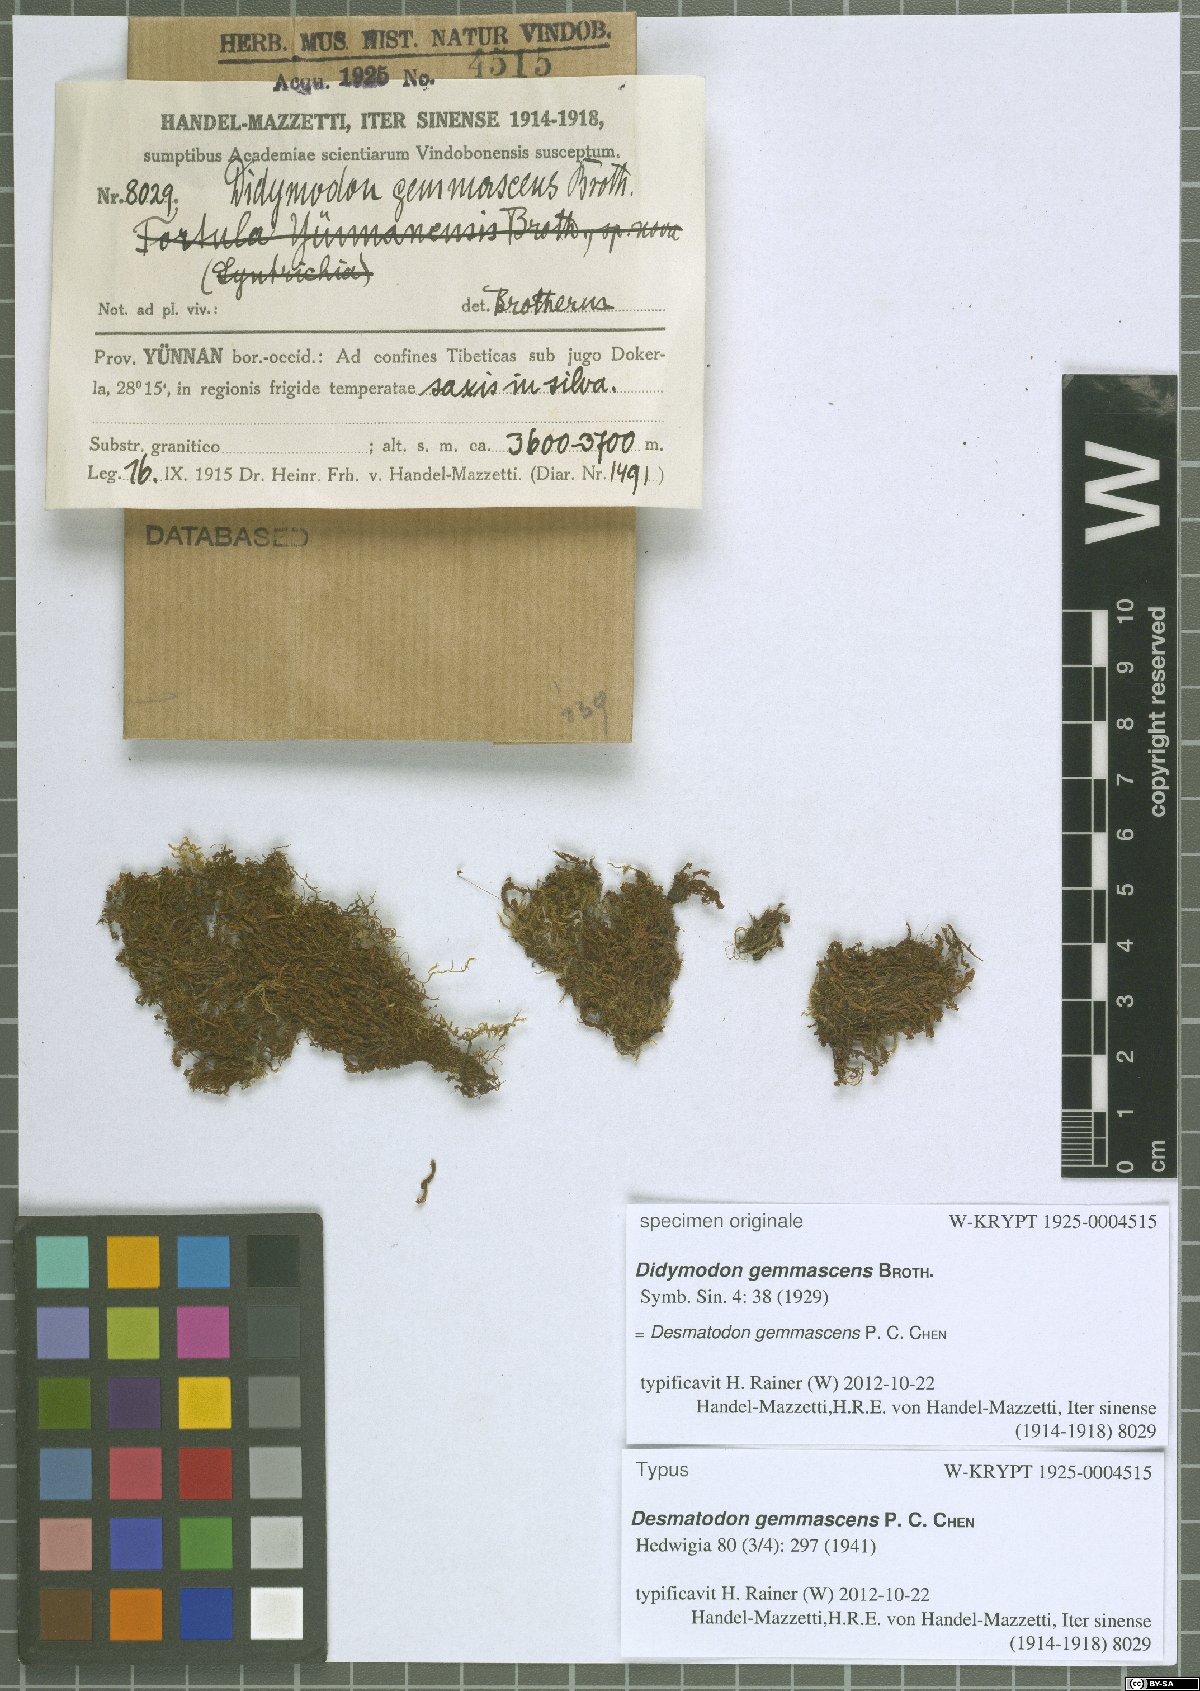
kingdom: Plantae
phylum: Bryophyta
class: Bryopsida
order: Pottiales
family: Pottiaceae
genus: Streptopogon
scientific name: Streptopogon gemmascens
